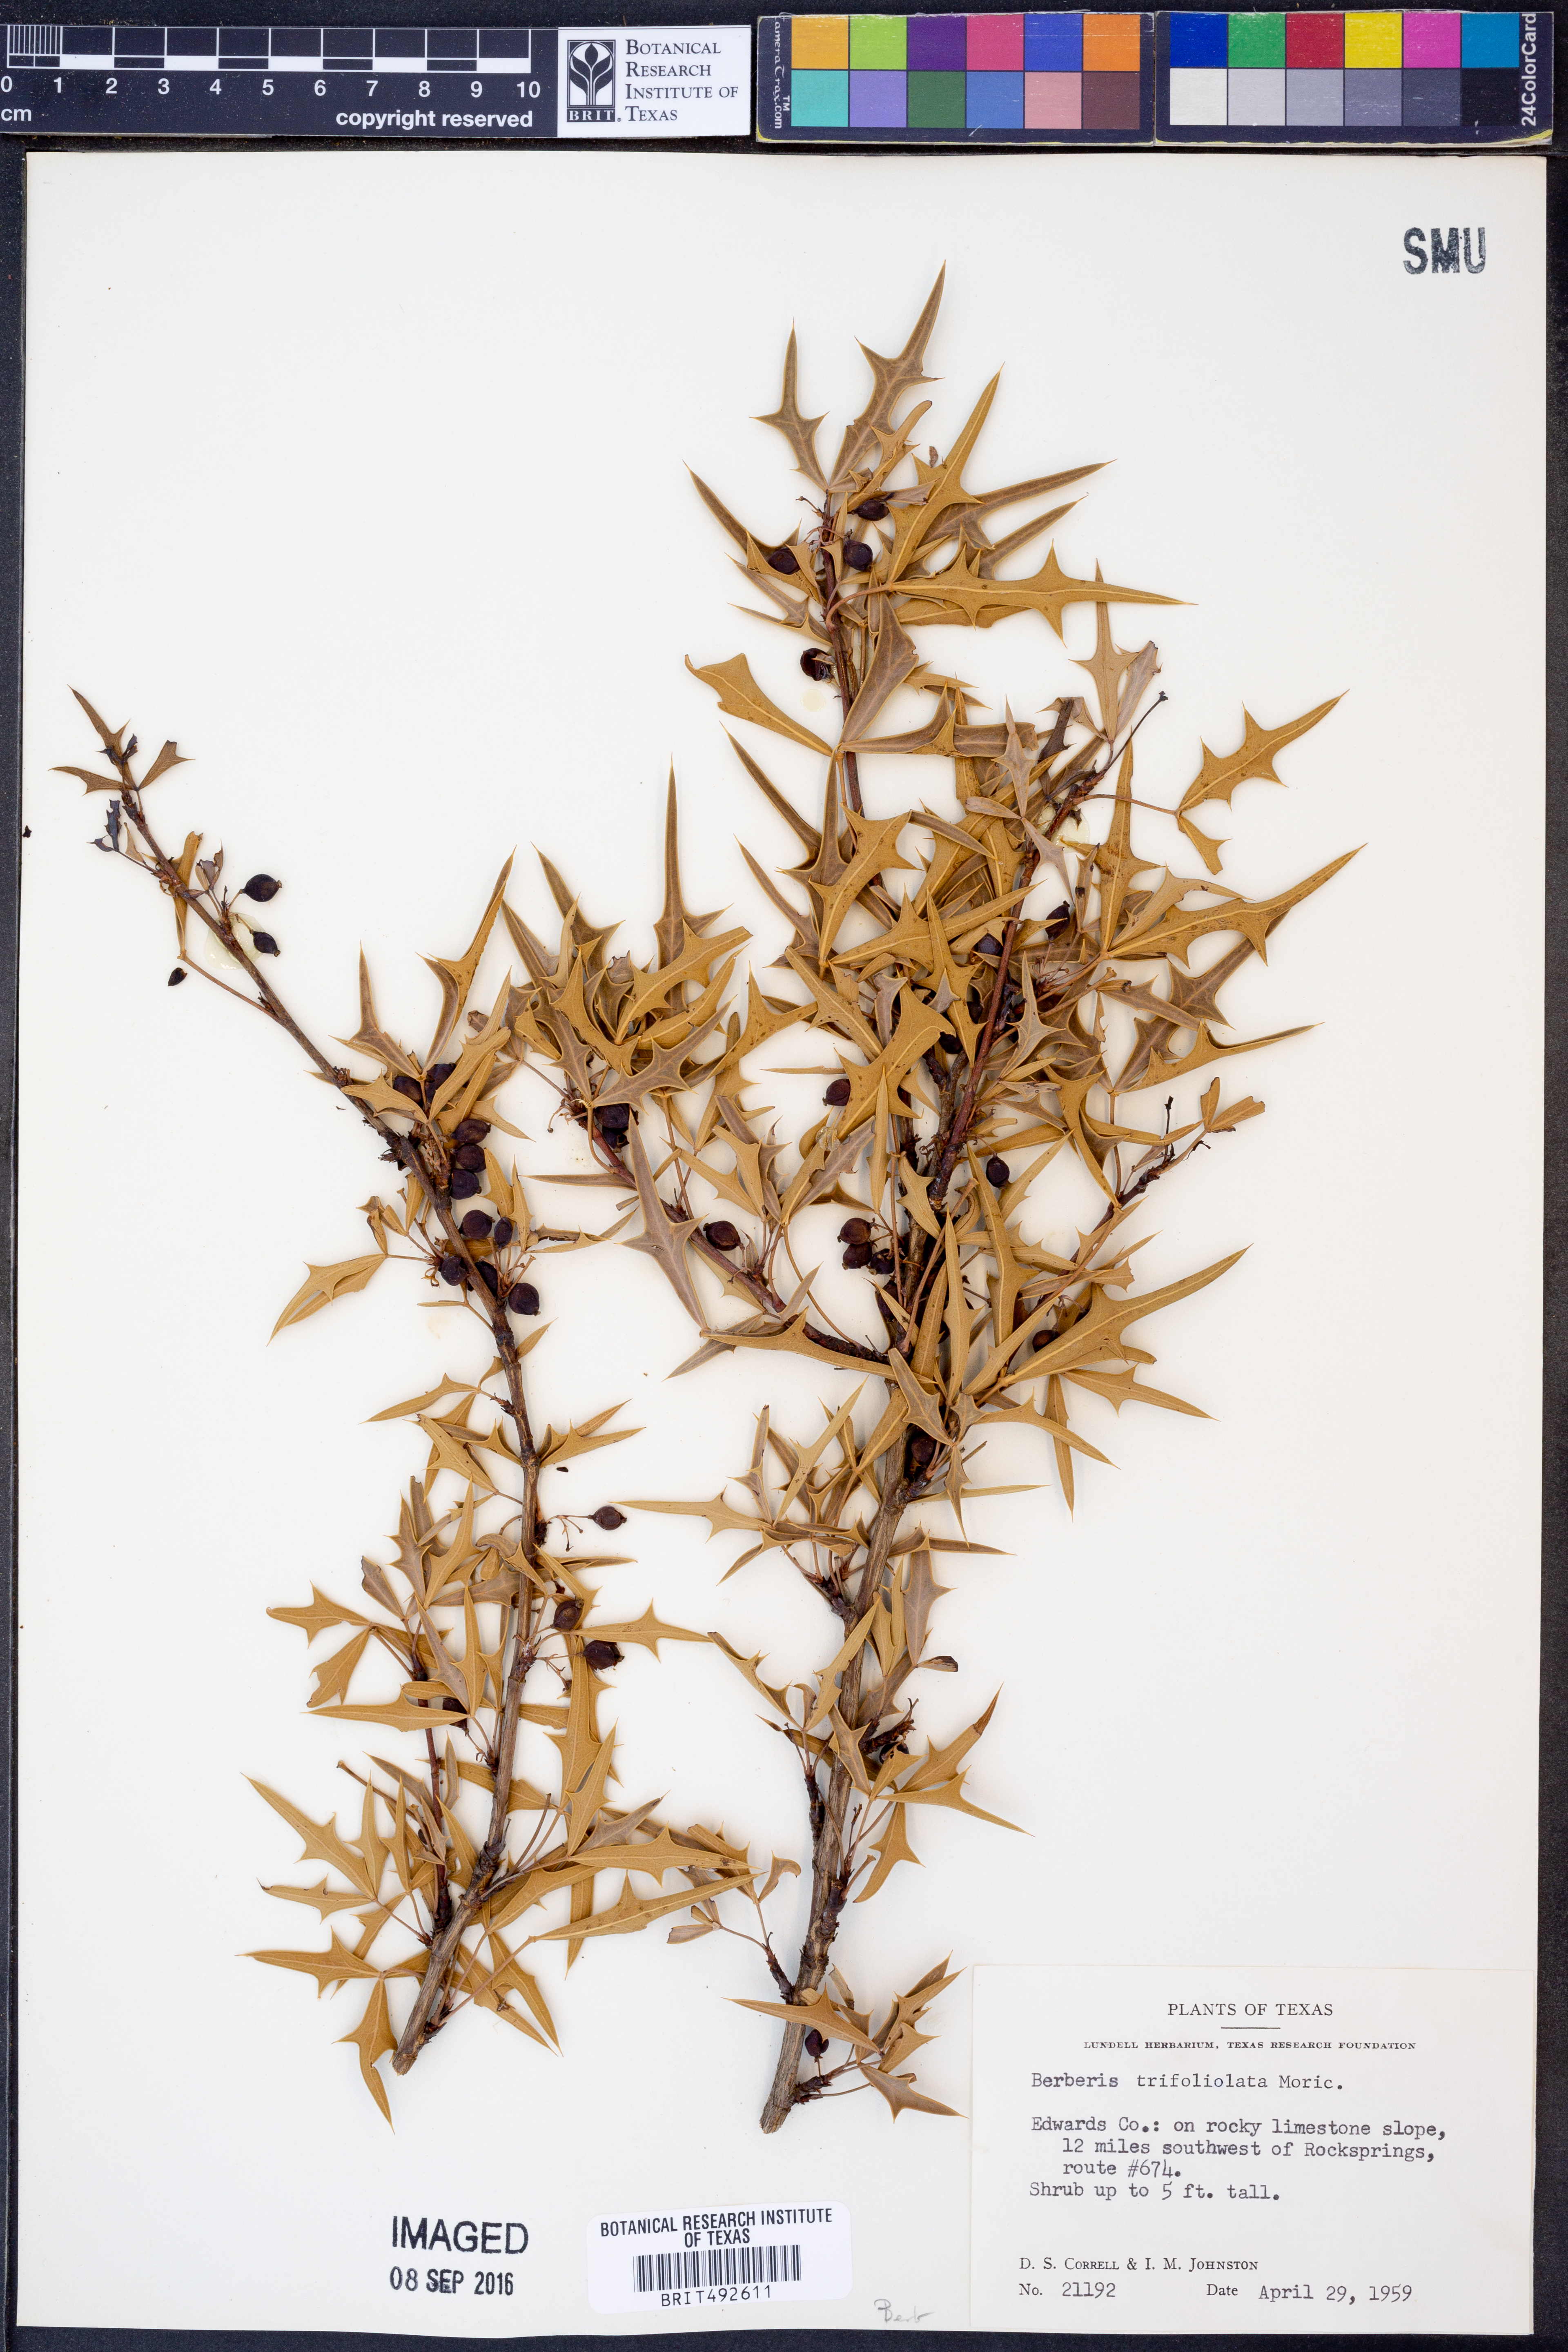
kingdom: Plantae
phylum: Tracheophyta
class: Magnoliopsida
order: Ranunculales
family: Berberidaceae
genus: Alloberberis
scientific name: Alloberberis trifoliolata
